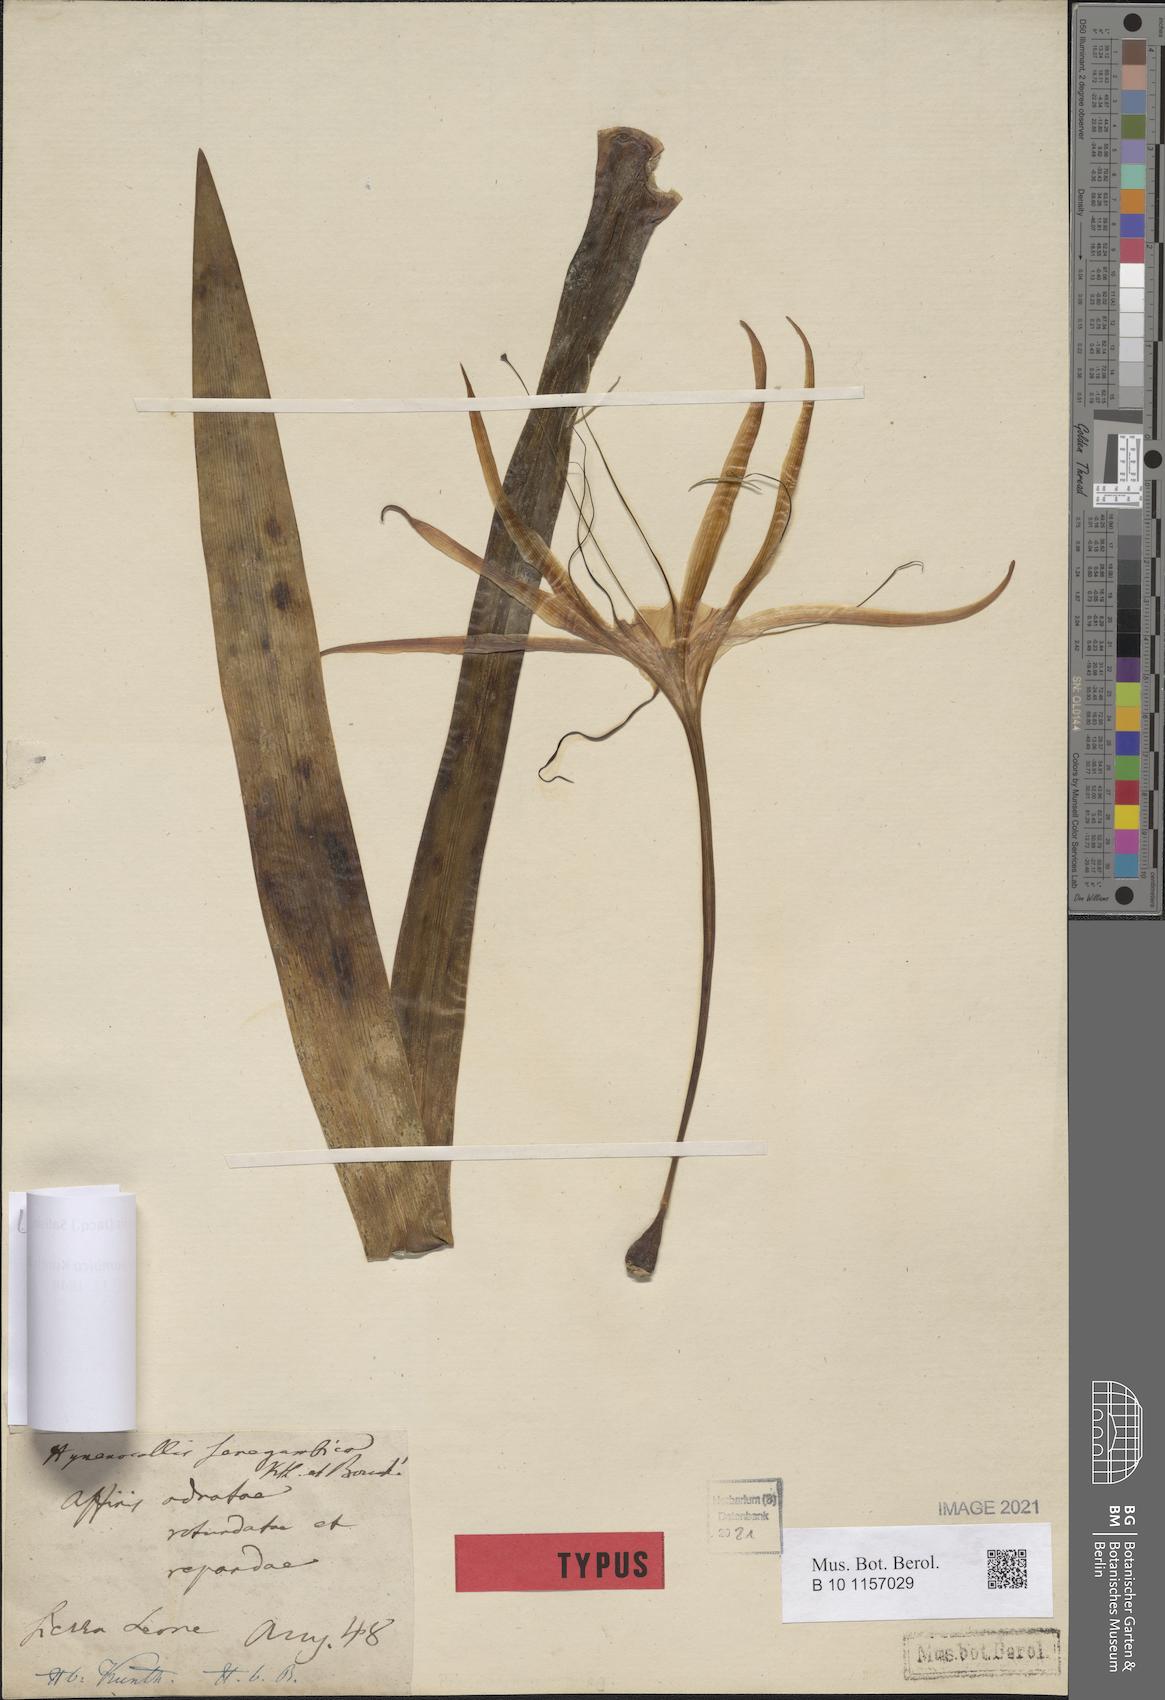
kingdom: Plantae
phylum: Tracheophyta
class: Liliopsida
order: Asparagales
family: Amaryllidaceae
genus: Hymenocallis
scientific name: Hymenocallis littoralis
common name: Beach spiderlily
